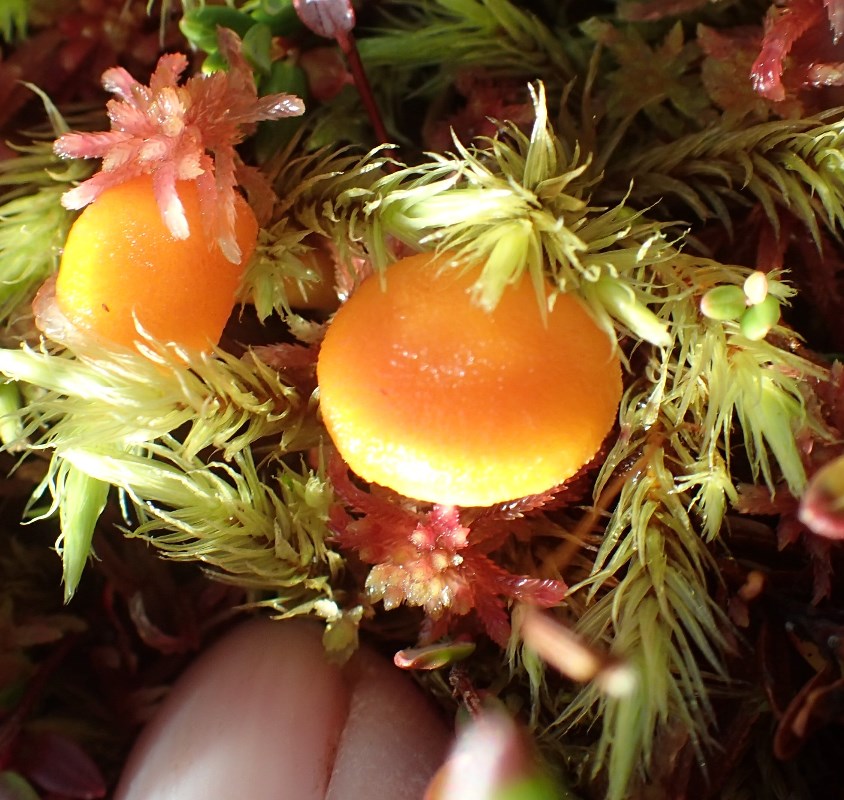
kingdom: Fungi
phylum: Basidiomycota
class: Agaricomycetes
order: Agaricales
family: Hygrophoraceae
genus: Hygrocybe
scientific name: Hygrocybe substrangulata
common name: kær-vokshat
